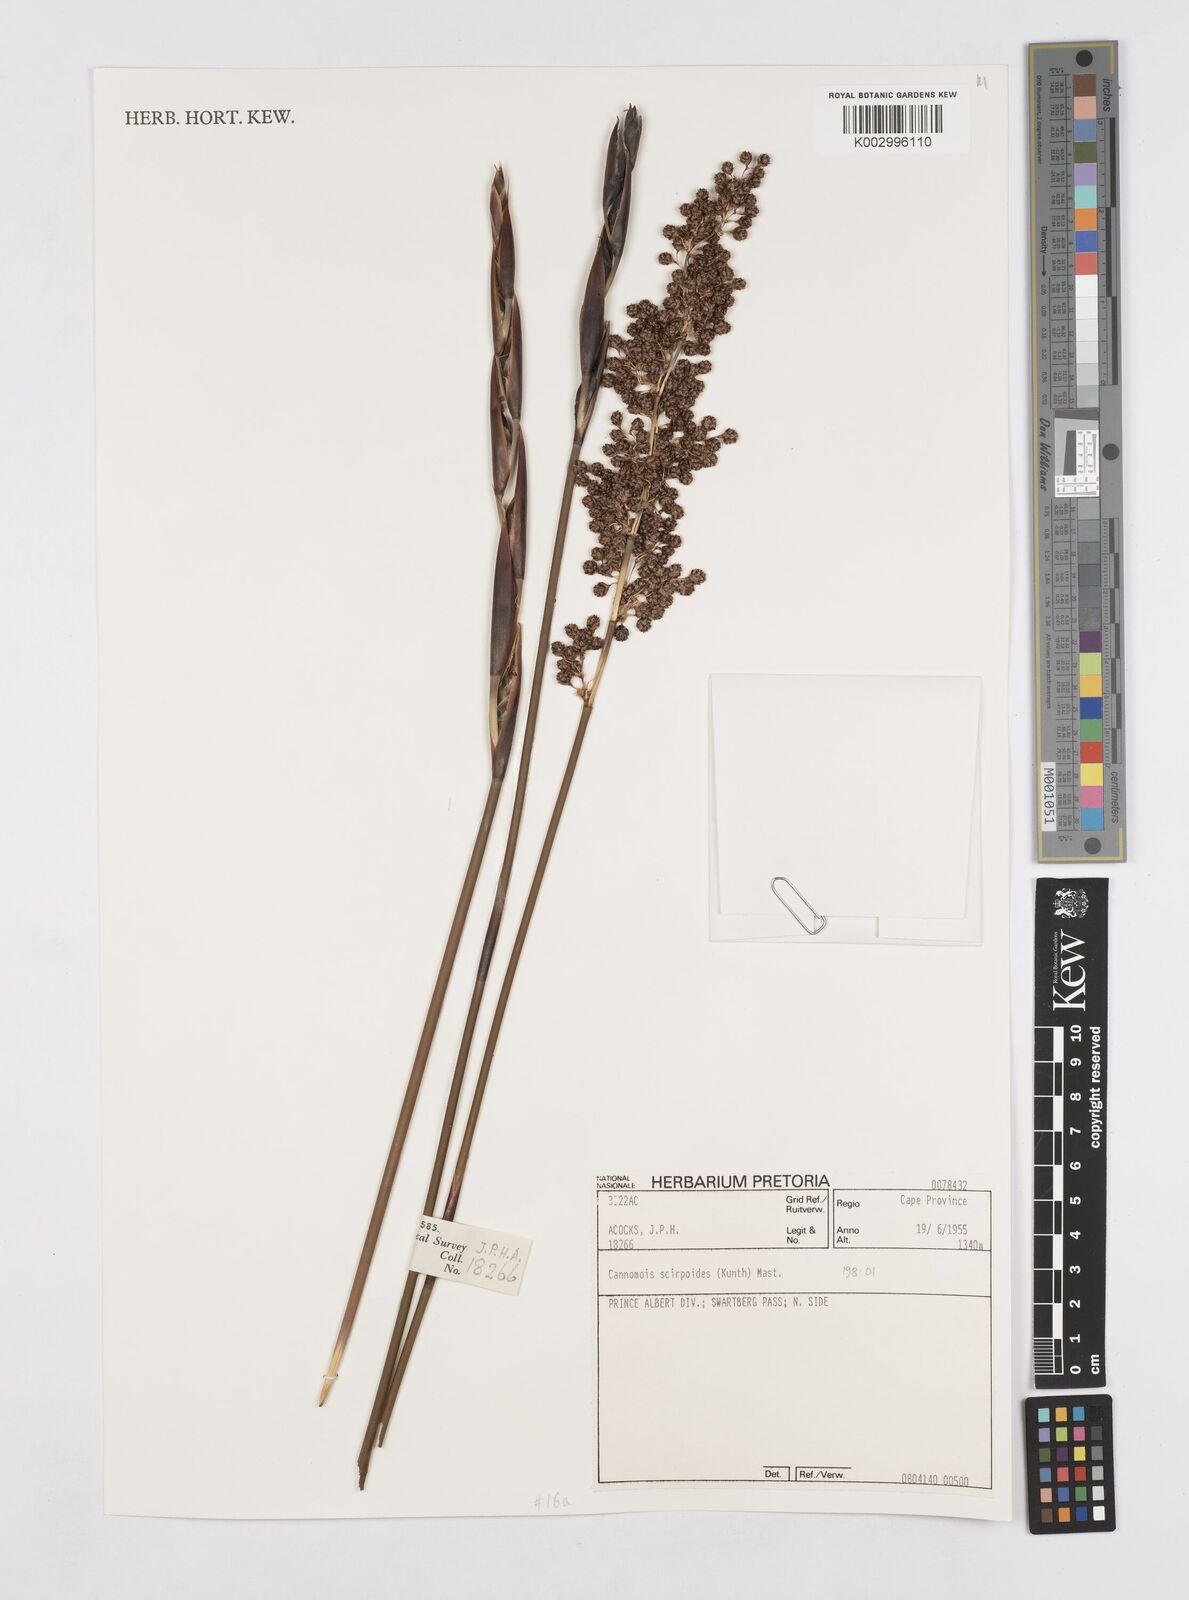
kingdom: Plantae
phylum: Tracheophyta
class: Liliopsida
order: Poales
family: Restionaceae
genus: Cannomois
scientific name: Cannomois scirpoides
